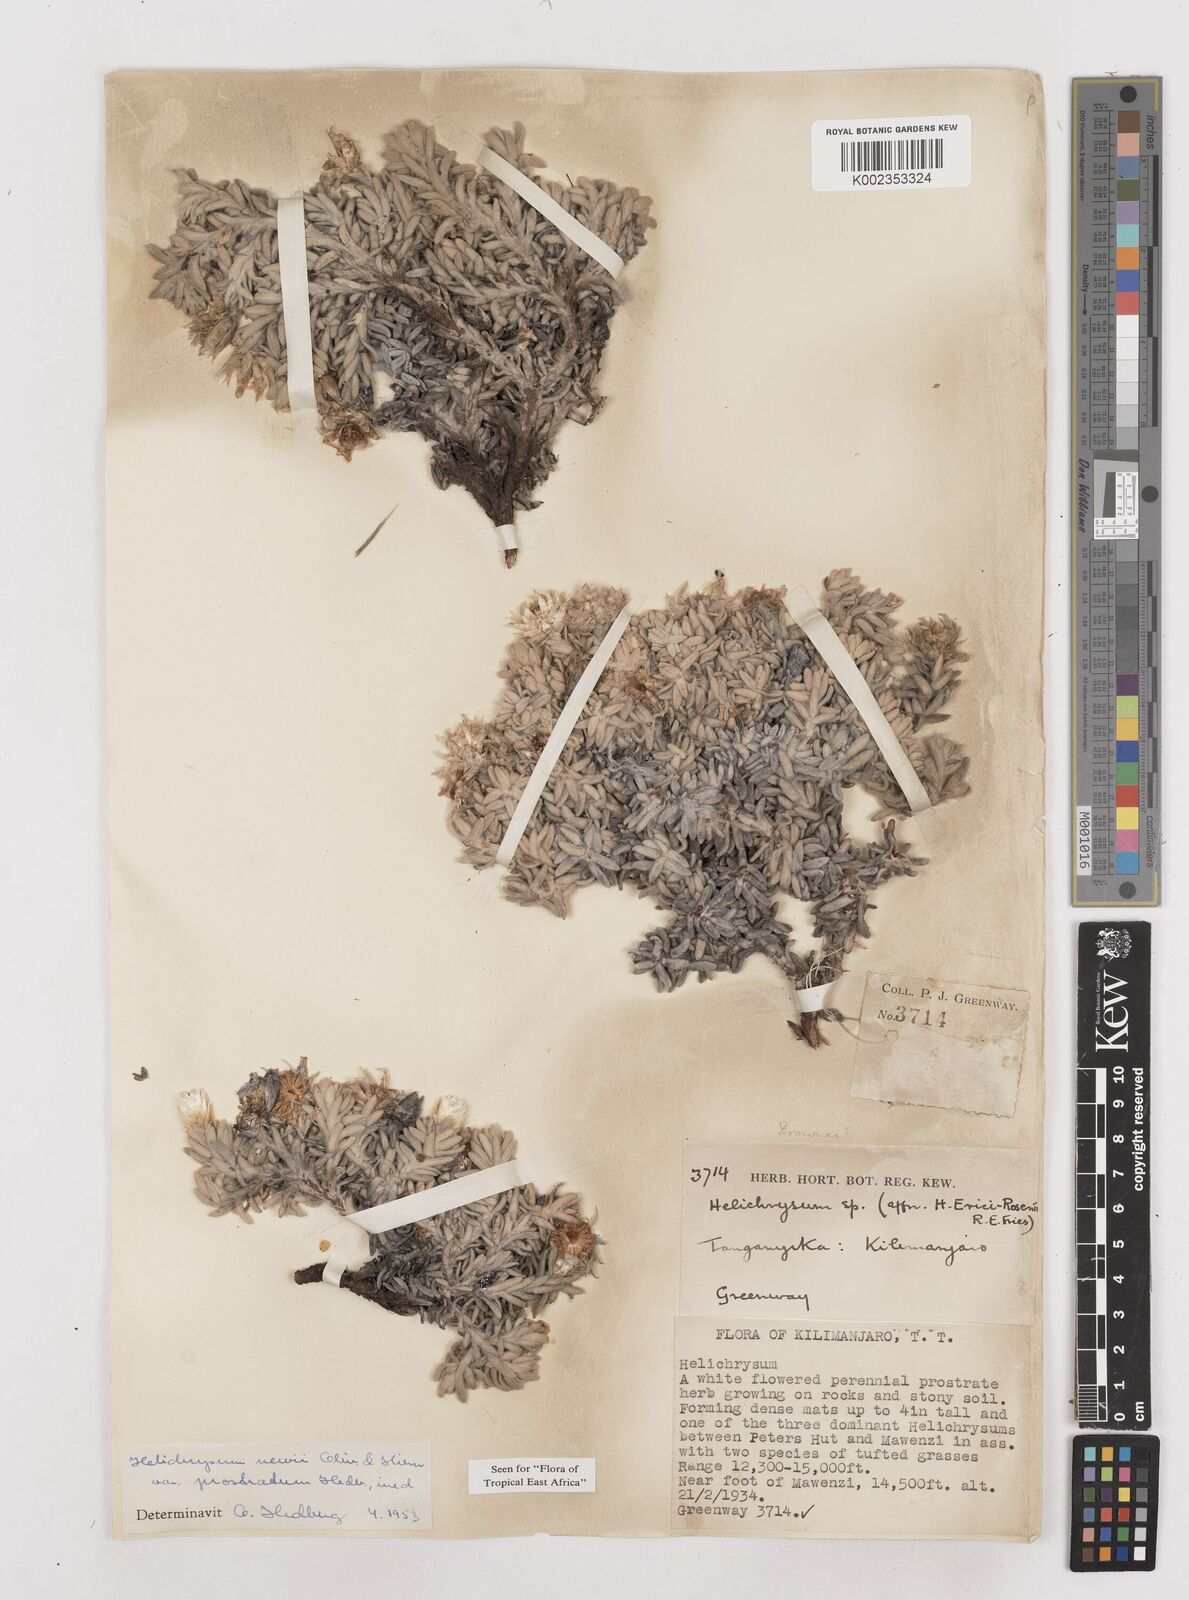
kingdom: Plantae
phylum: Tracheophyta
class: Magnoliopsida
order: Asterales
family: Asteraceae
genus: Helichrysum
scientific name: Helichrysum newii
